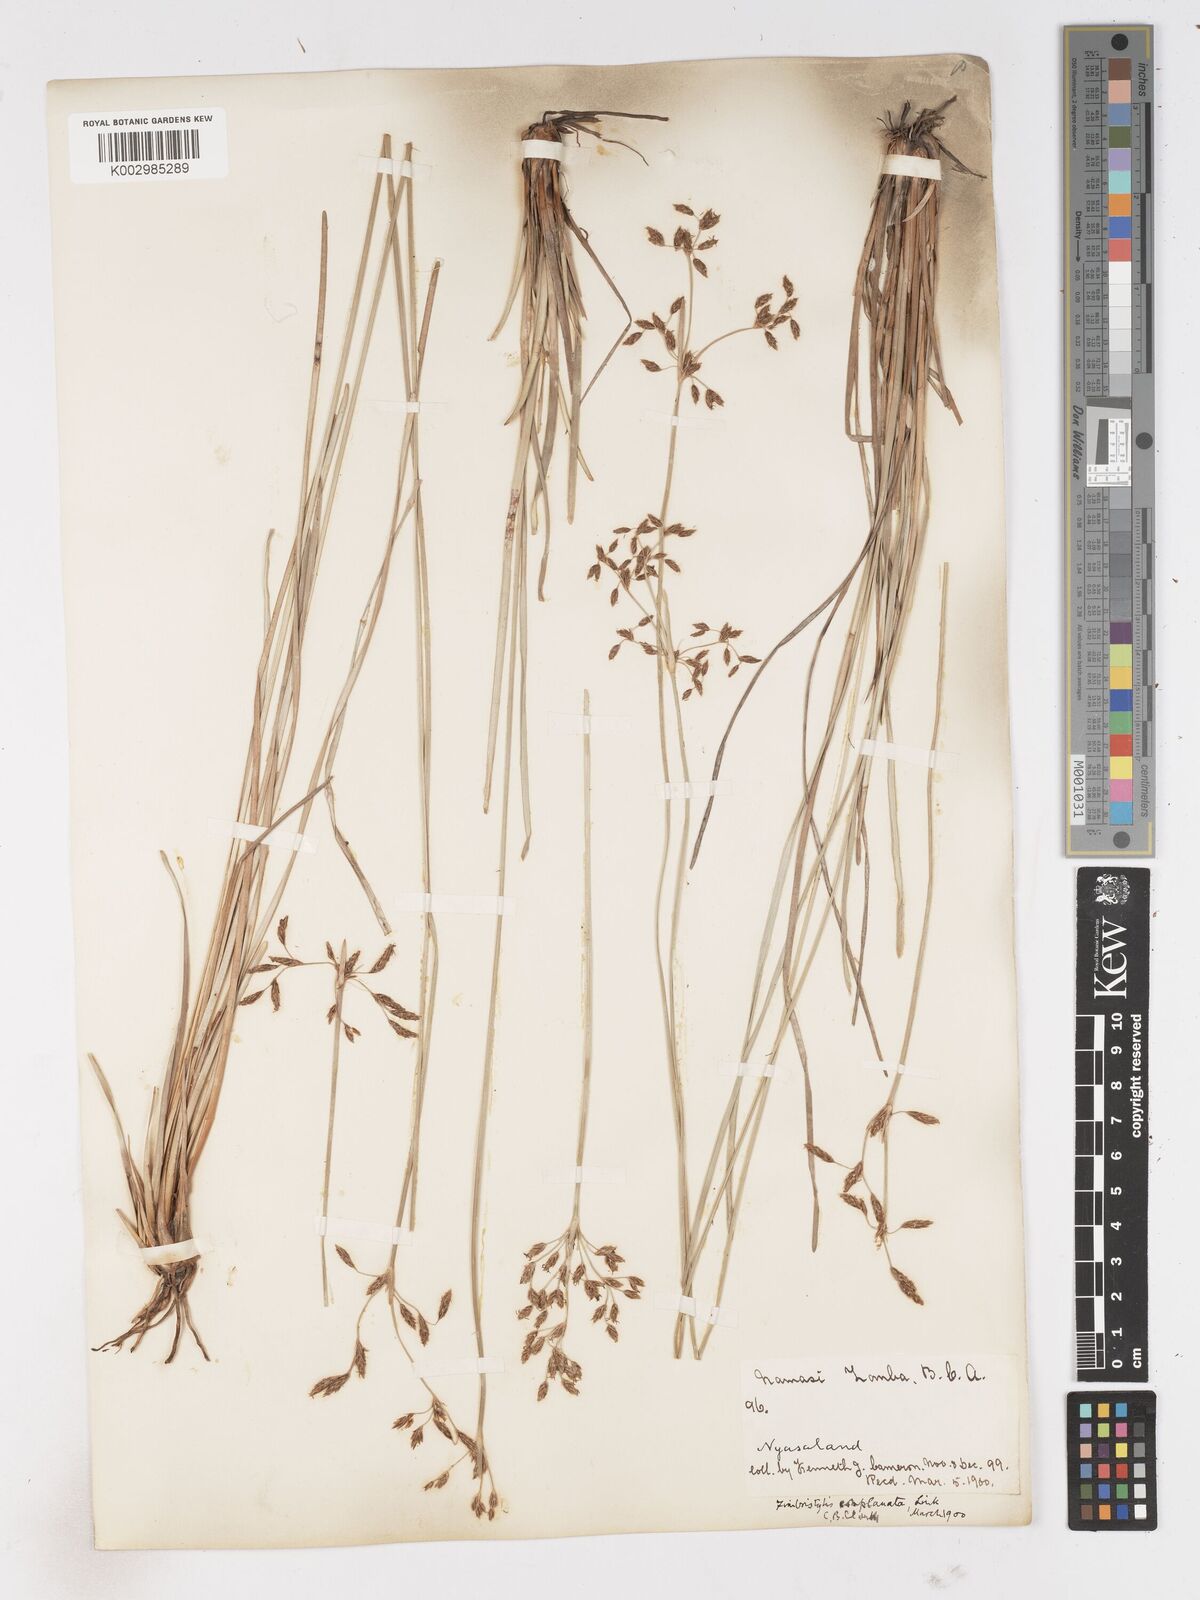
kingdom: Plantae
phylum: Tracheophyta
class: Liliopsida
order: Poales
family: Cyperaceae
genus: Fimbristylis
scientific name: Fimbristylis complanata
